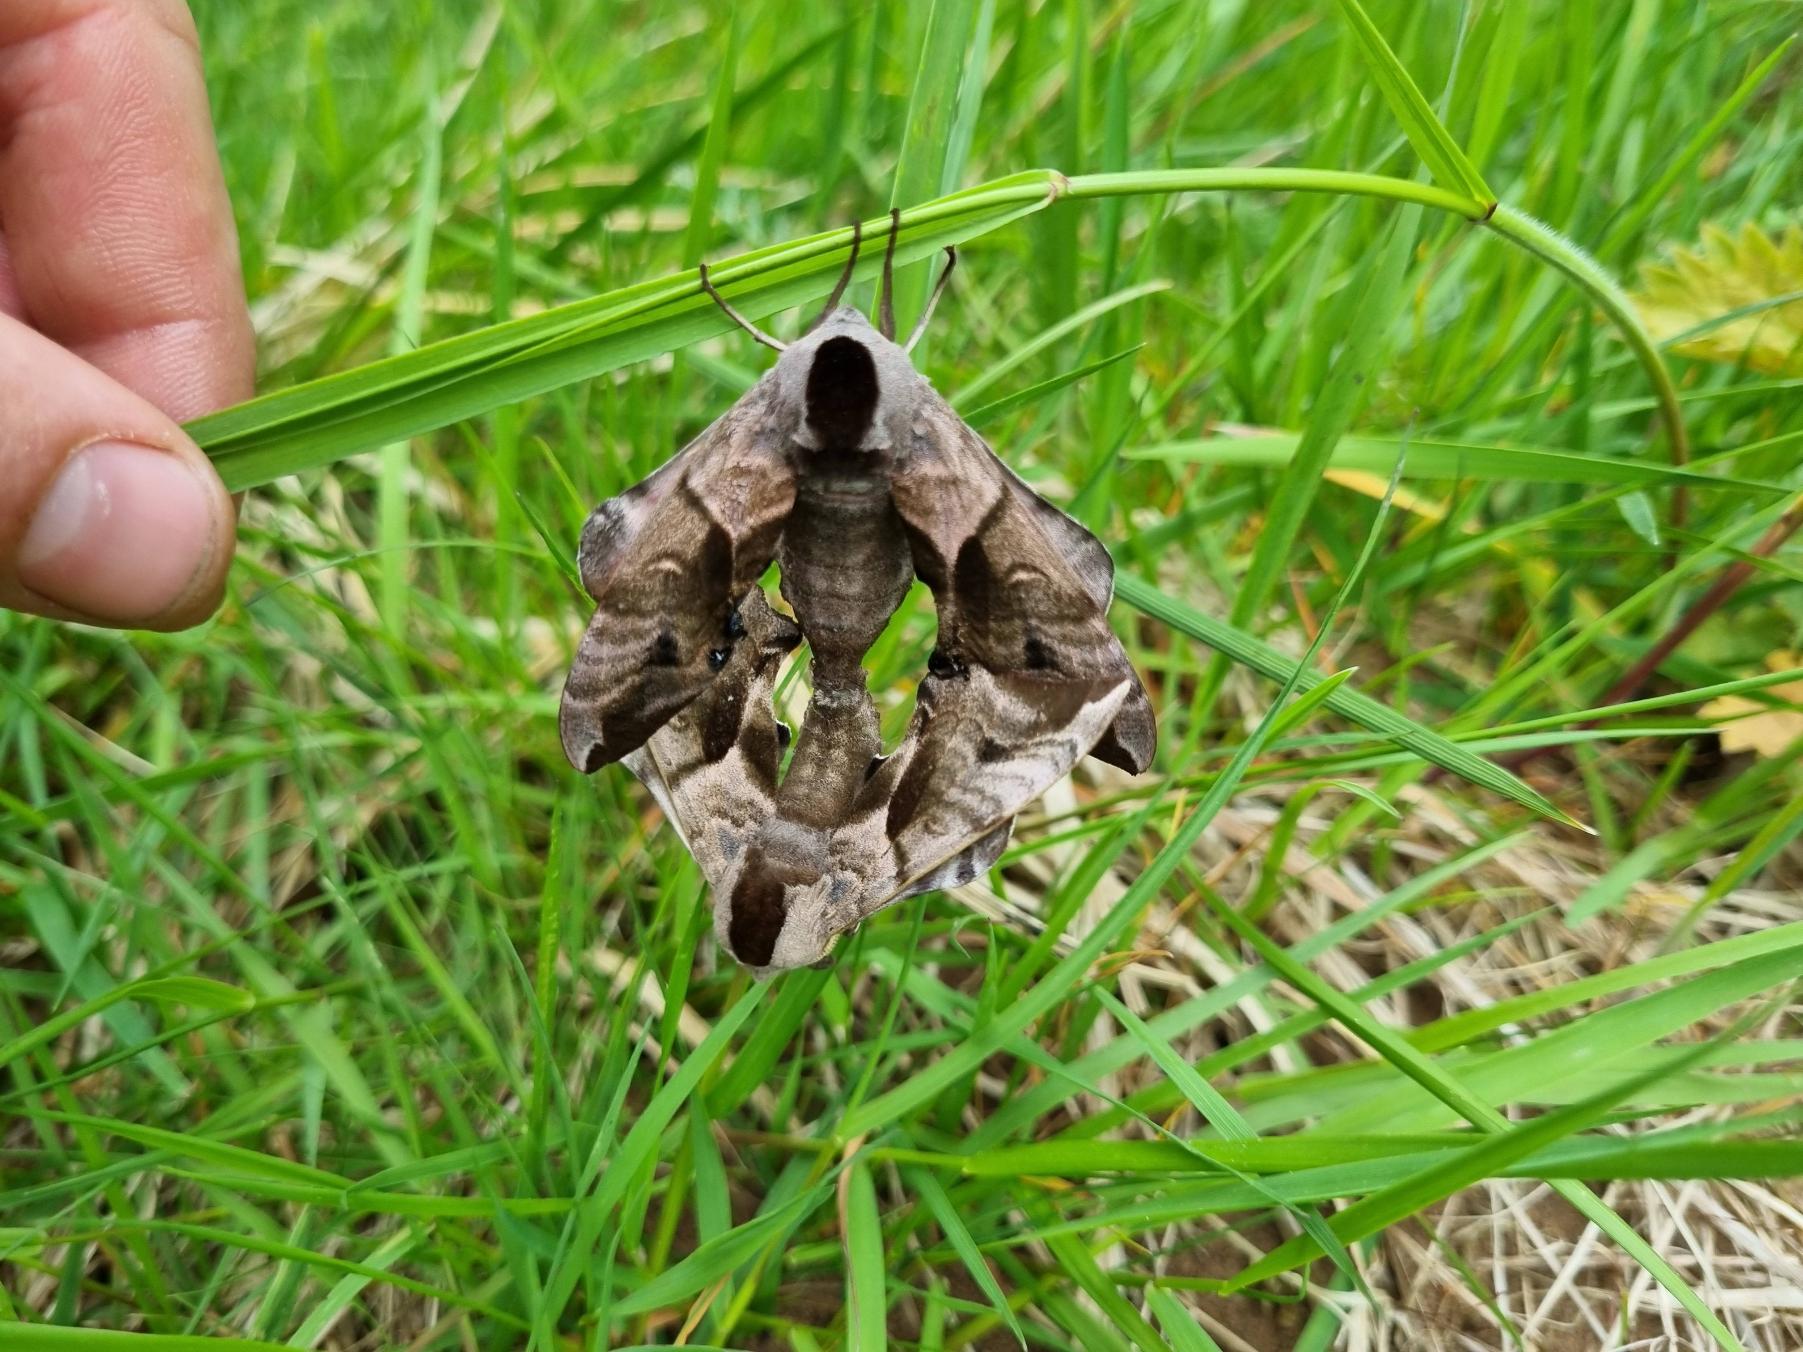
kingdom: Animalia
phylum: Arthropoda
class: Insecta
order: Lepidoptera
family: Sphingidae
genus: Smerinthus
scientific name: Smerinthus ocellata
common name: Aftenpåfugleøje
